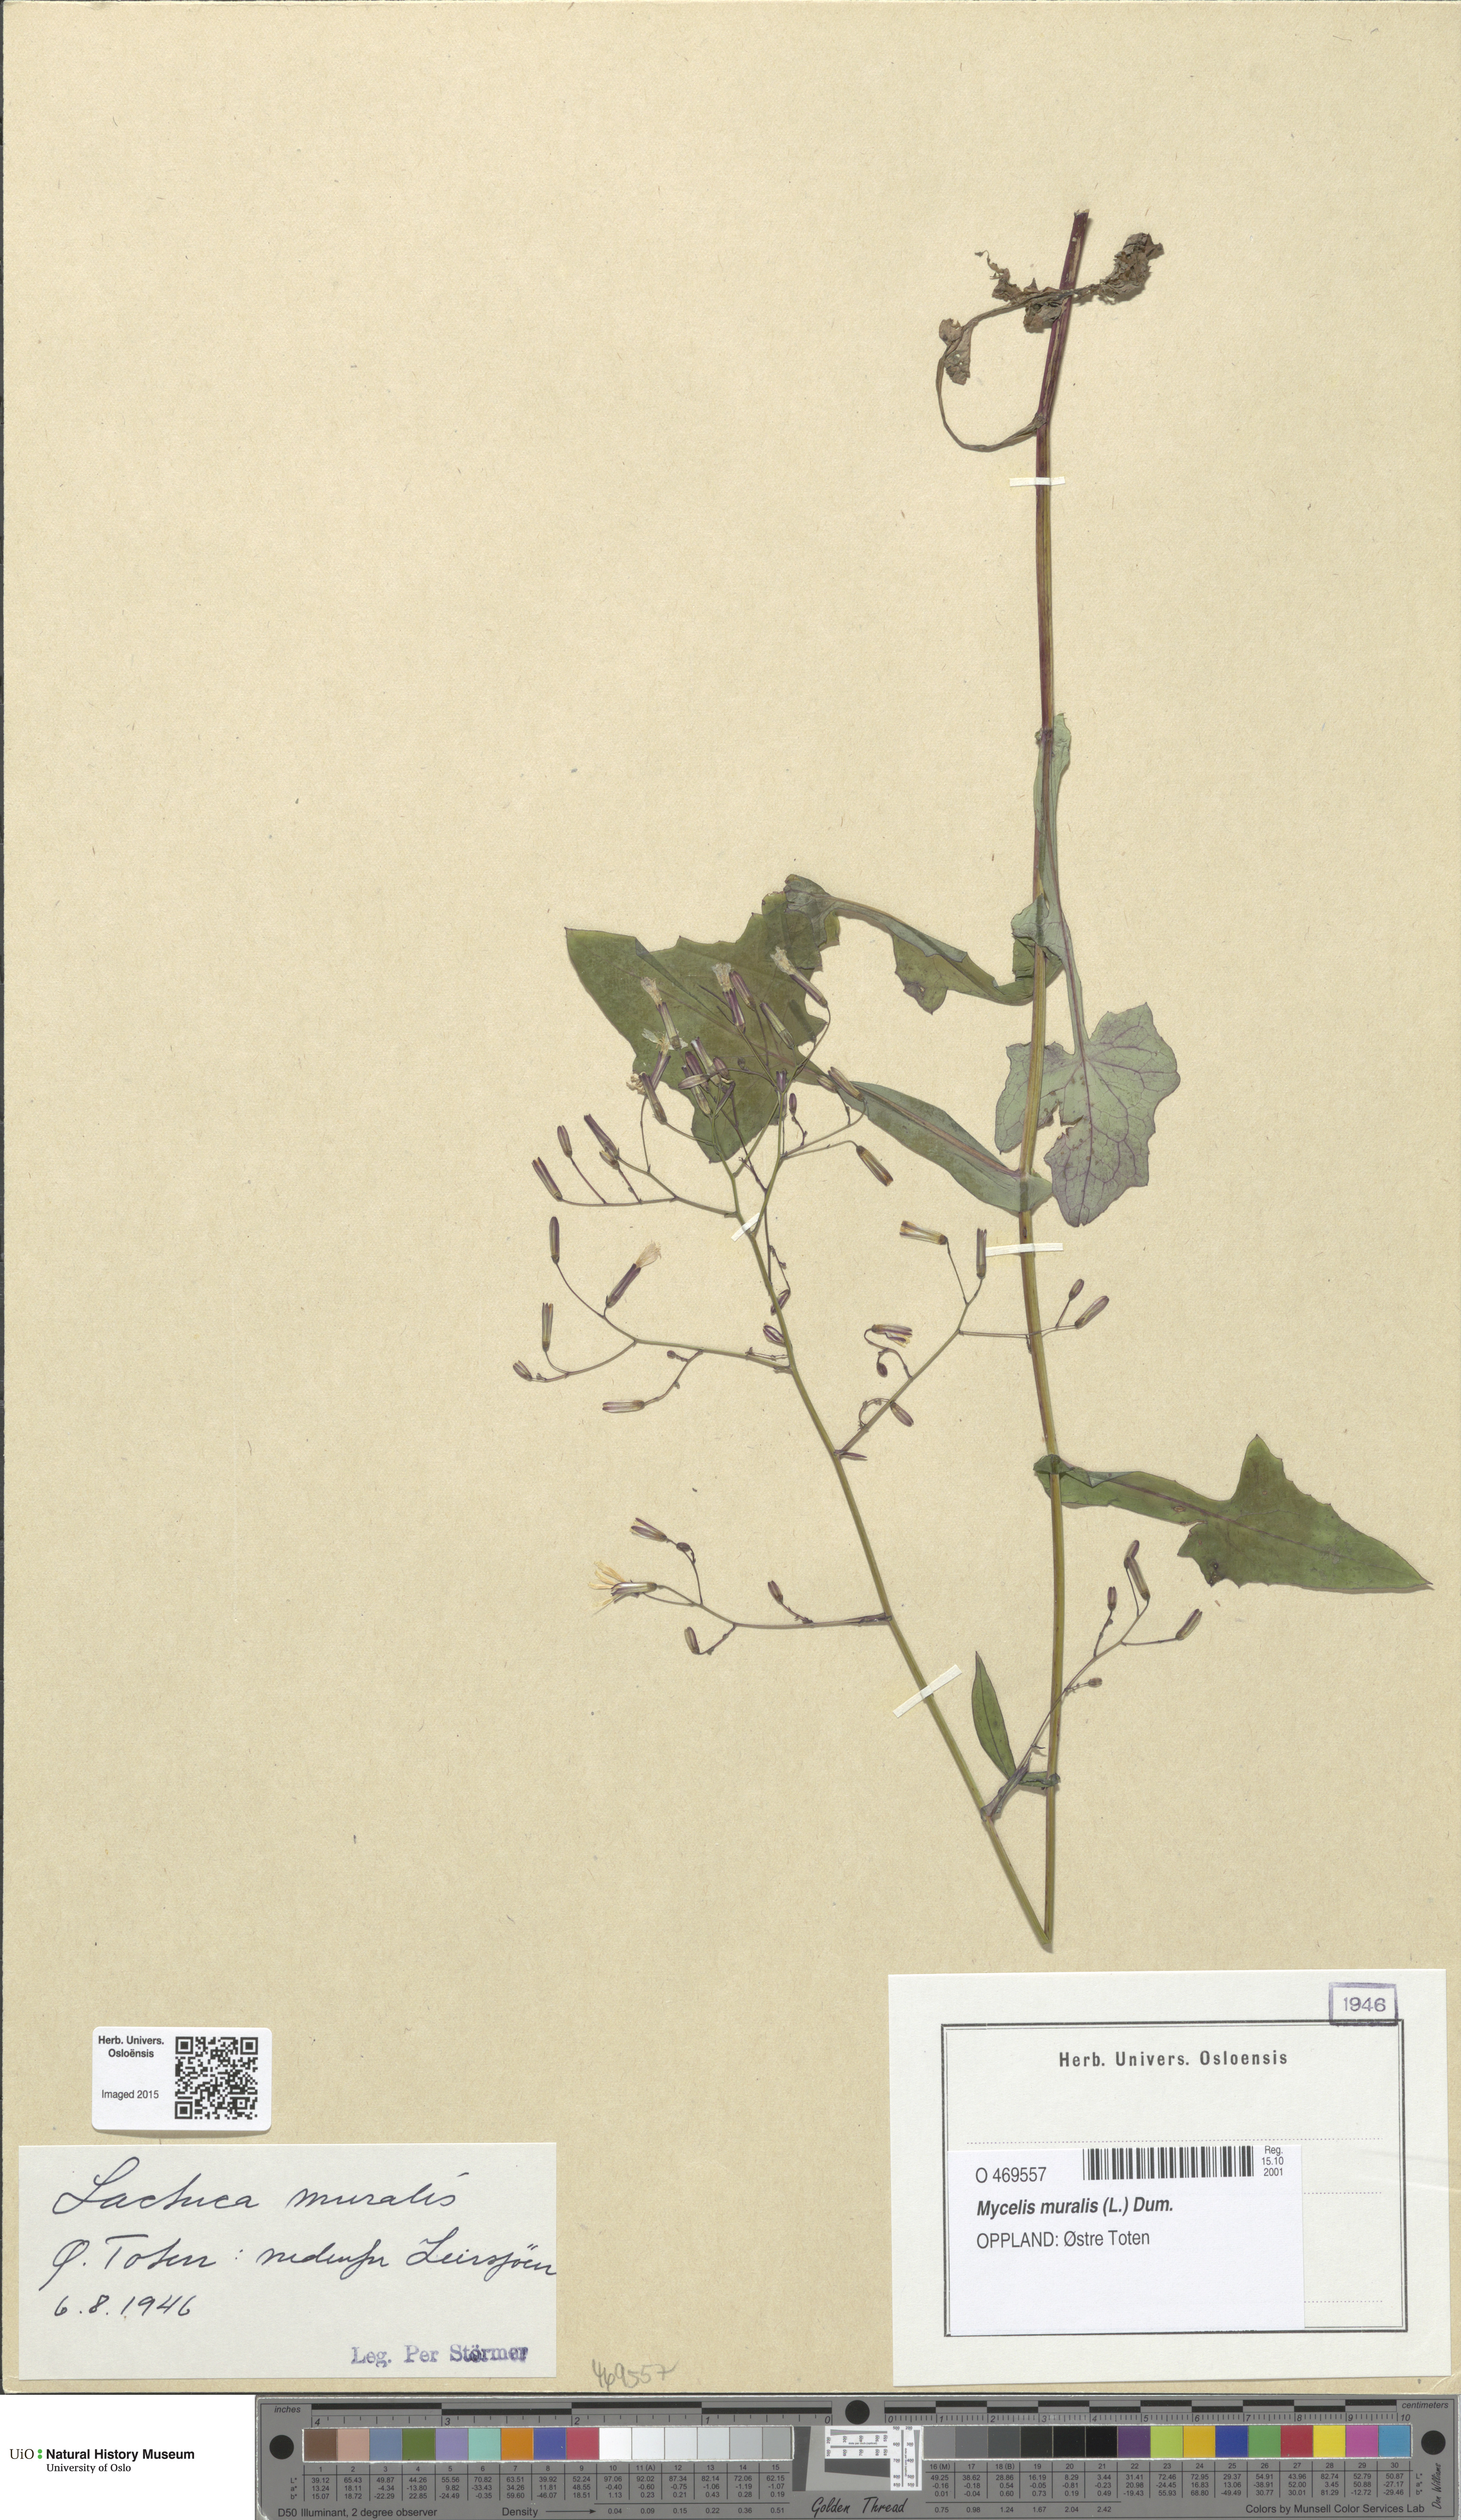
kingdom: Plantae
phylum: Tracheophyta
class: Magnoliopsida
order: Asterales
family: Asteraceae
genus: Mycelis
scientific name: Mycelis muralis
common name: Wall lettuce
